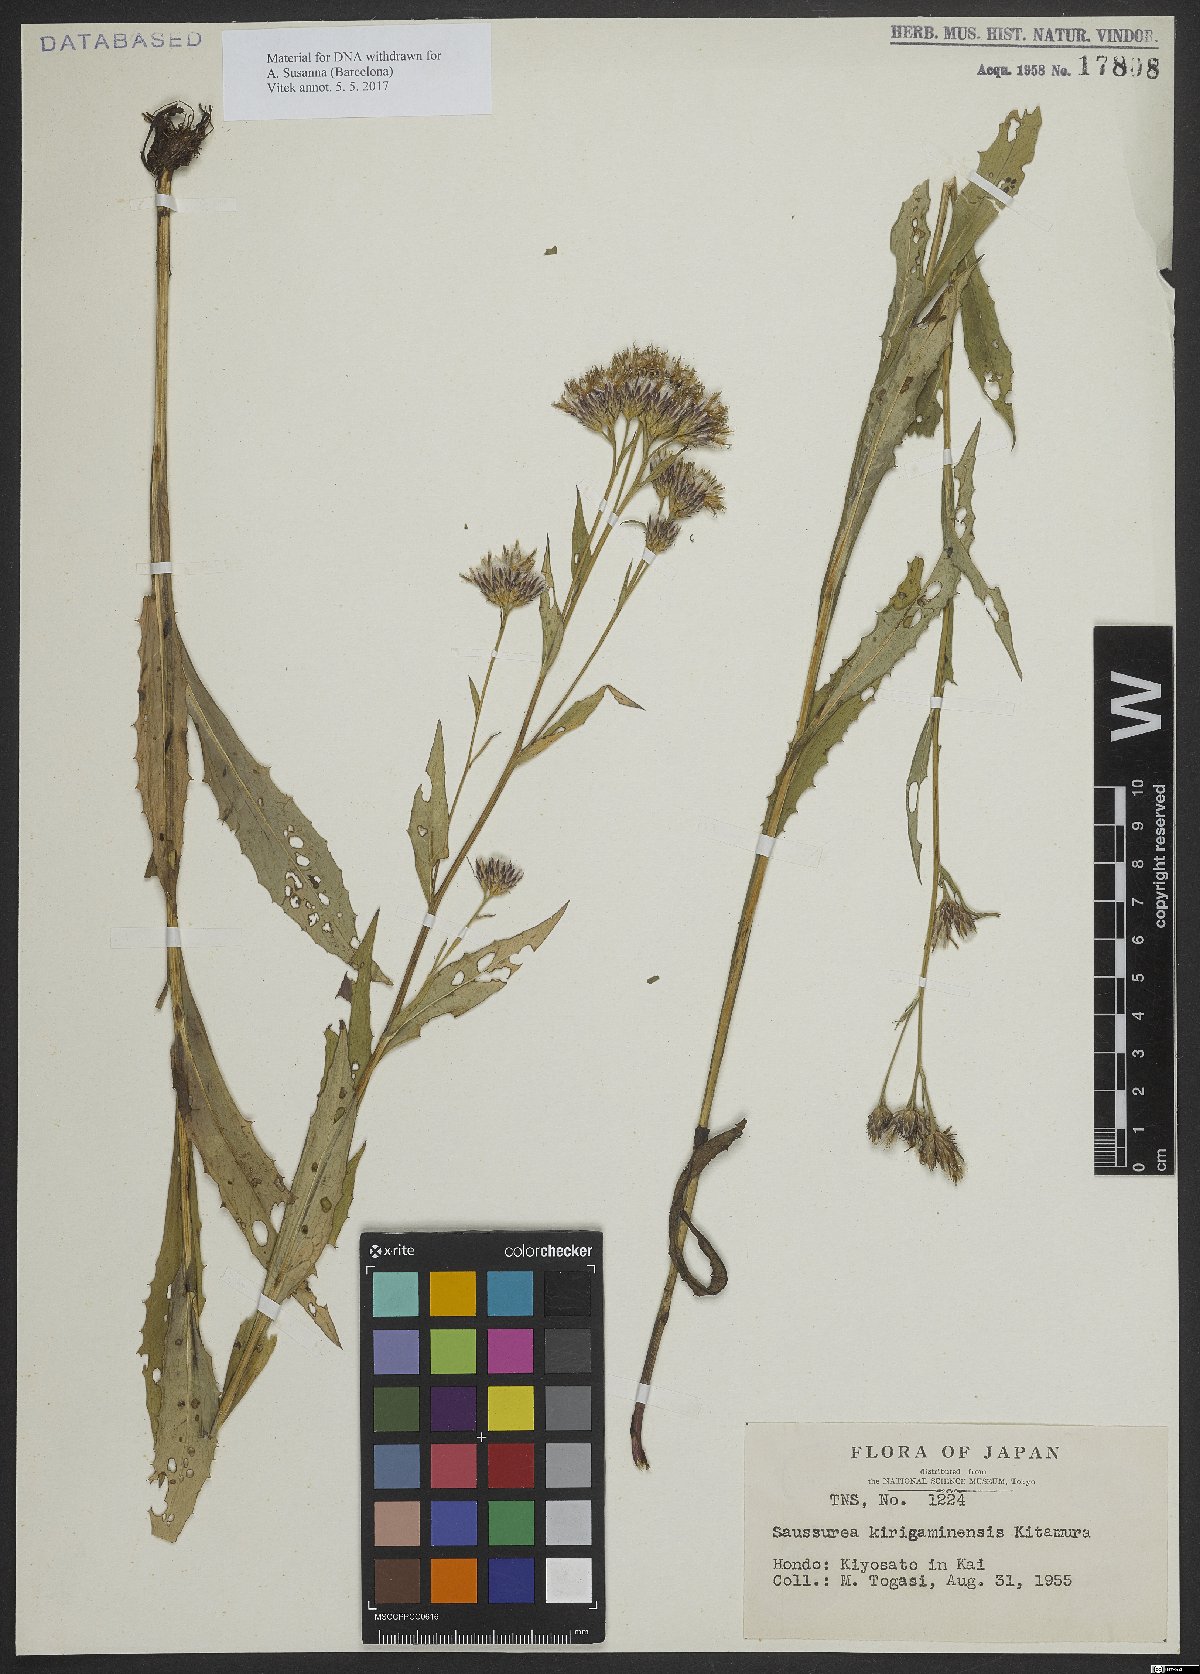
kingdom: Plantae
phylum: Tracheophyta
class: Magnoliopsida
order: Asterales
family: Asteraceae
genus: Saussurea
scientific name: Saussurea modesta
